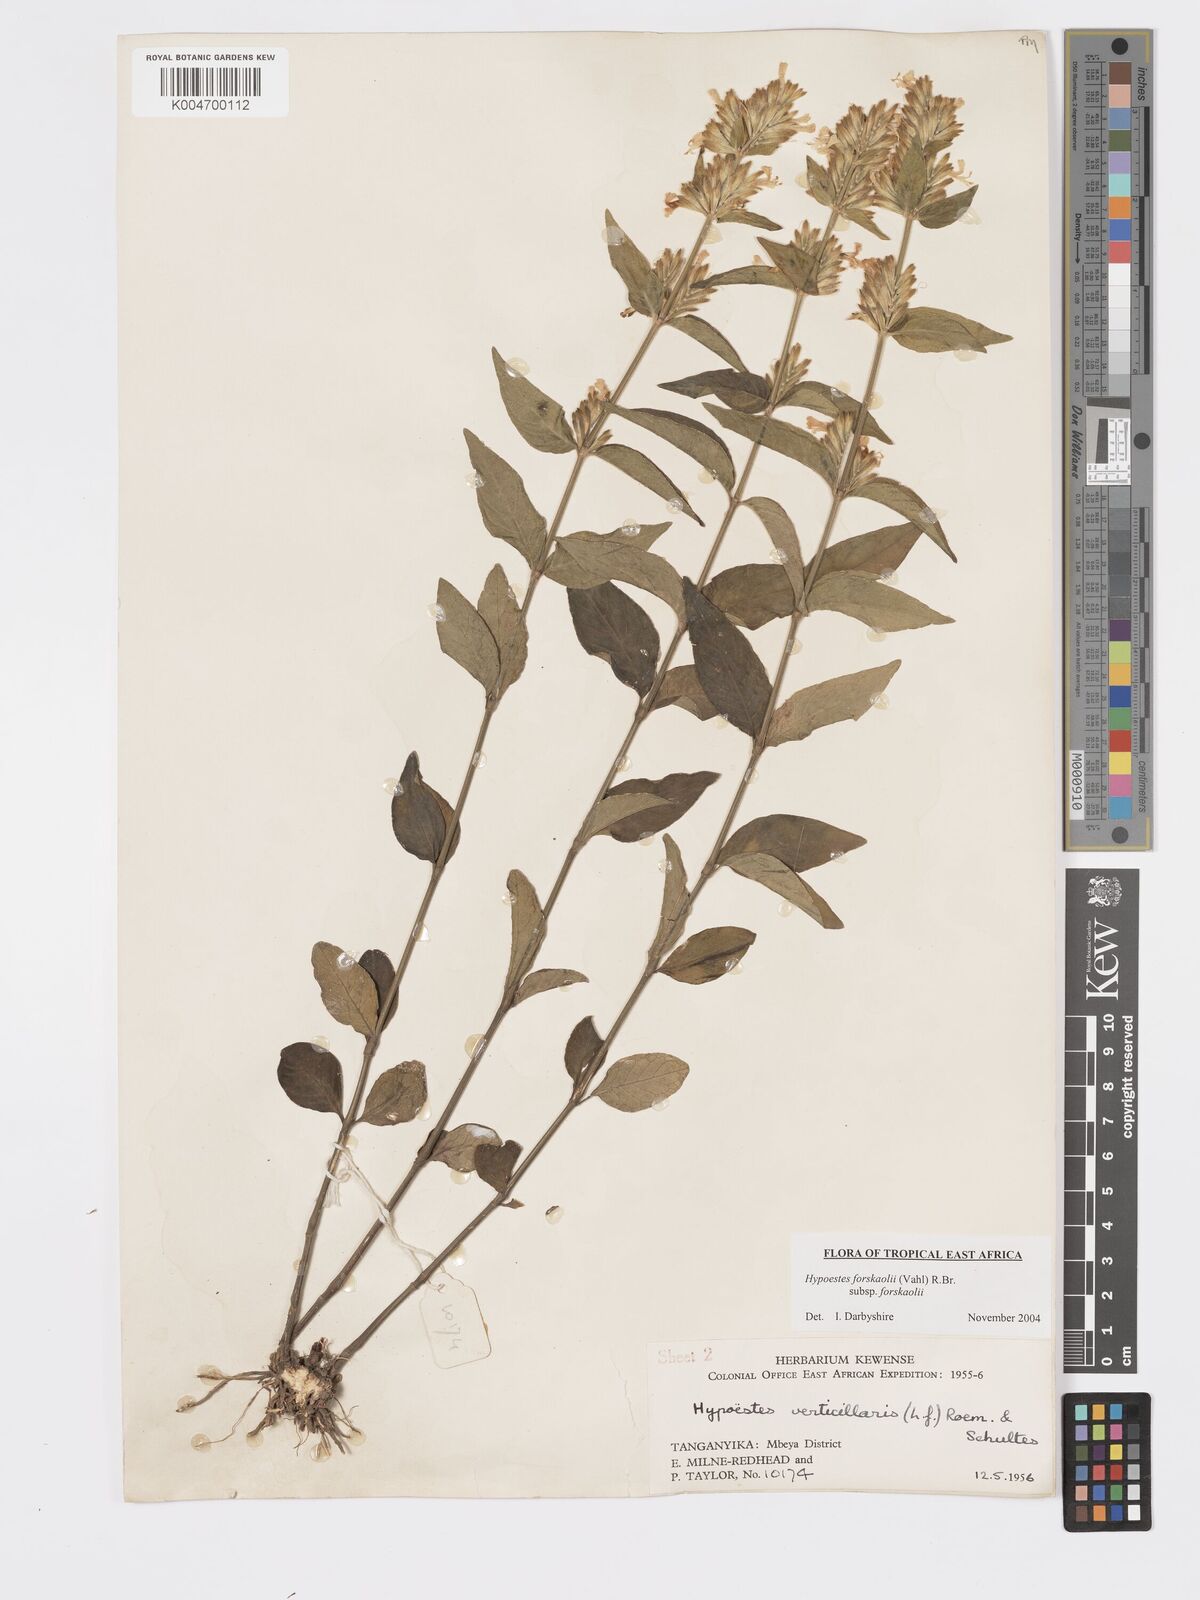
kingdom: Plantae
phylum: Tracheophyta
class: Magnoliopsida
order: Lamiales
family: Acanthaceae
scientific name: Acanthaceae
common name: Acanthaceae
